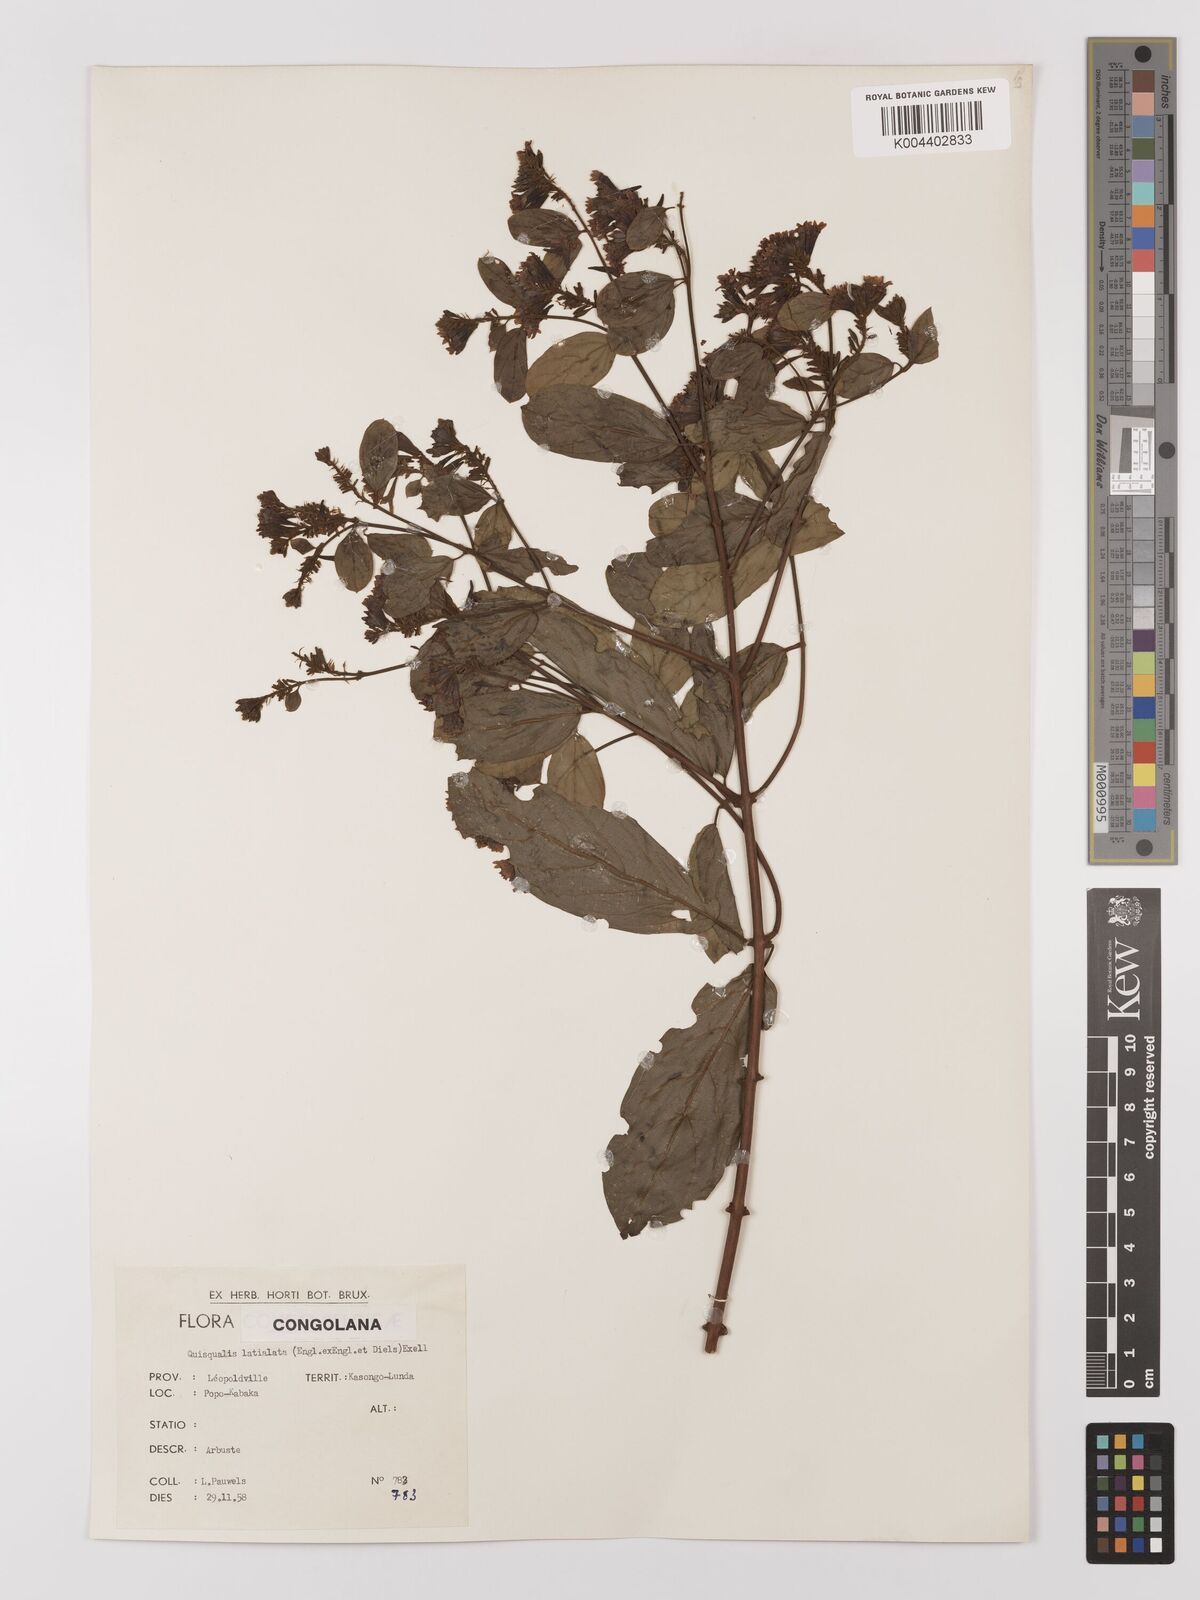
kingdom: Plantae
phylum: Tracheophyta
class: Magnoliopsida
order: Myrtales
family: Combretaceae
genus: Combretum
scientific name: Combretum latialatum
